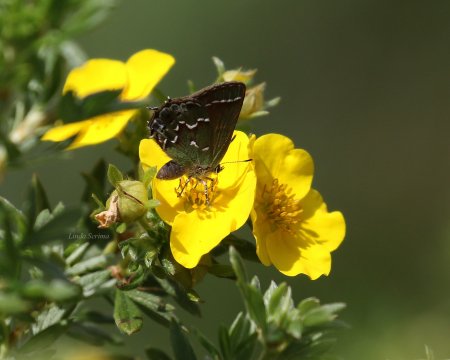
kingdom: Animalia
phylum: Arthropoda
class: Insecta
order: Lepidoptera
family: Lycaenidae
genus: Mitoura
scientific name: Mitoura gryneus
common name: Juniper Hairstreak
